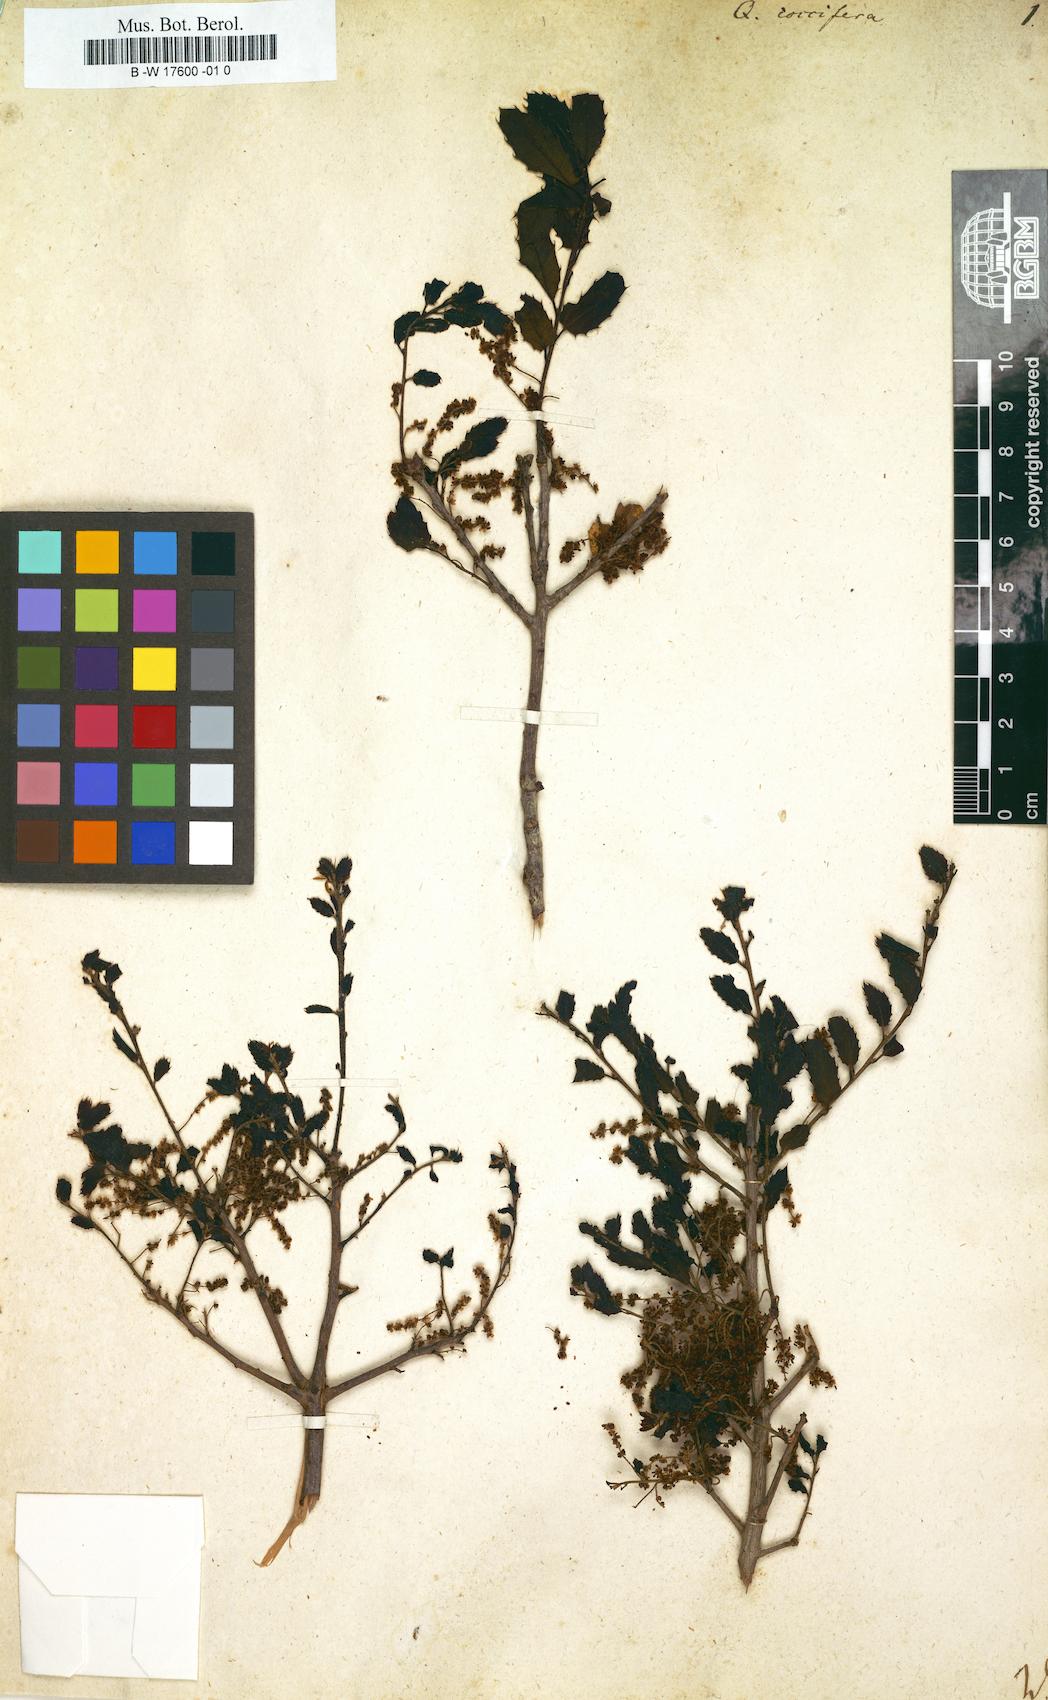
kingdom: Plantae
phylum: Tracheophyta
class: Magnoliopsida
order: Fagales
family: Fagaceae
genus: Quercus
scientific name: Quercus coccifera
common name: Kermes oak
